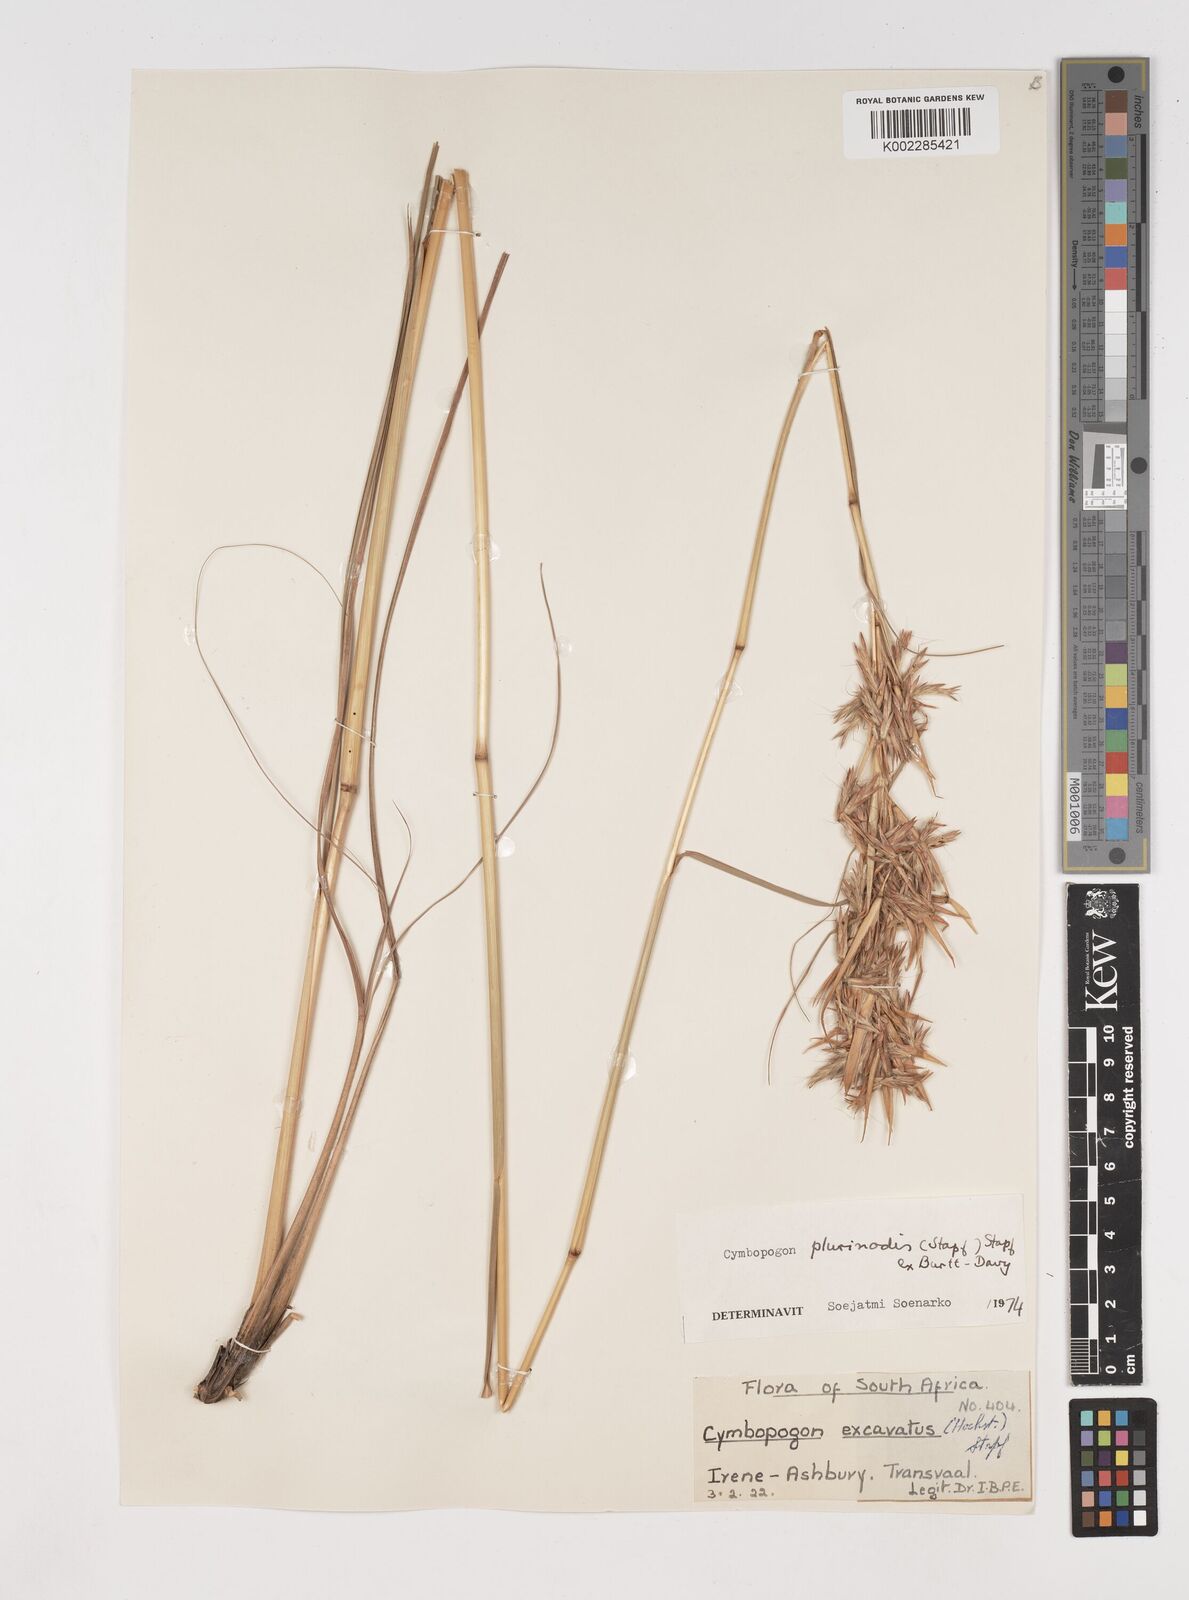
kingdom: Plantae
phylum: Tracheophyta
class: Liliopsida
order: Poales
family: Poaceae
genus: Cymbopogon
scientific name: Cymbopogon
